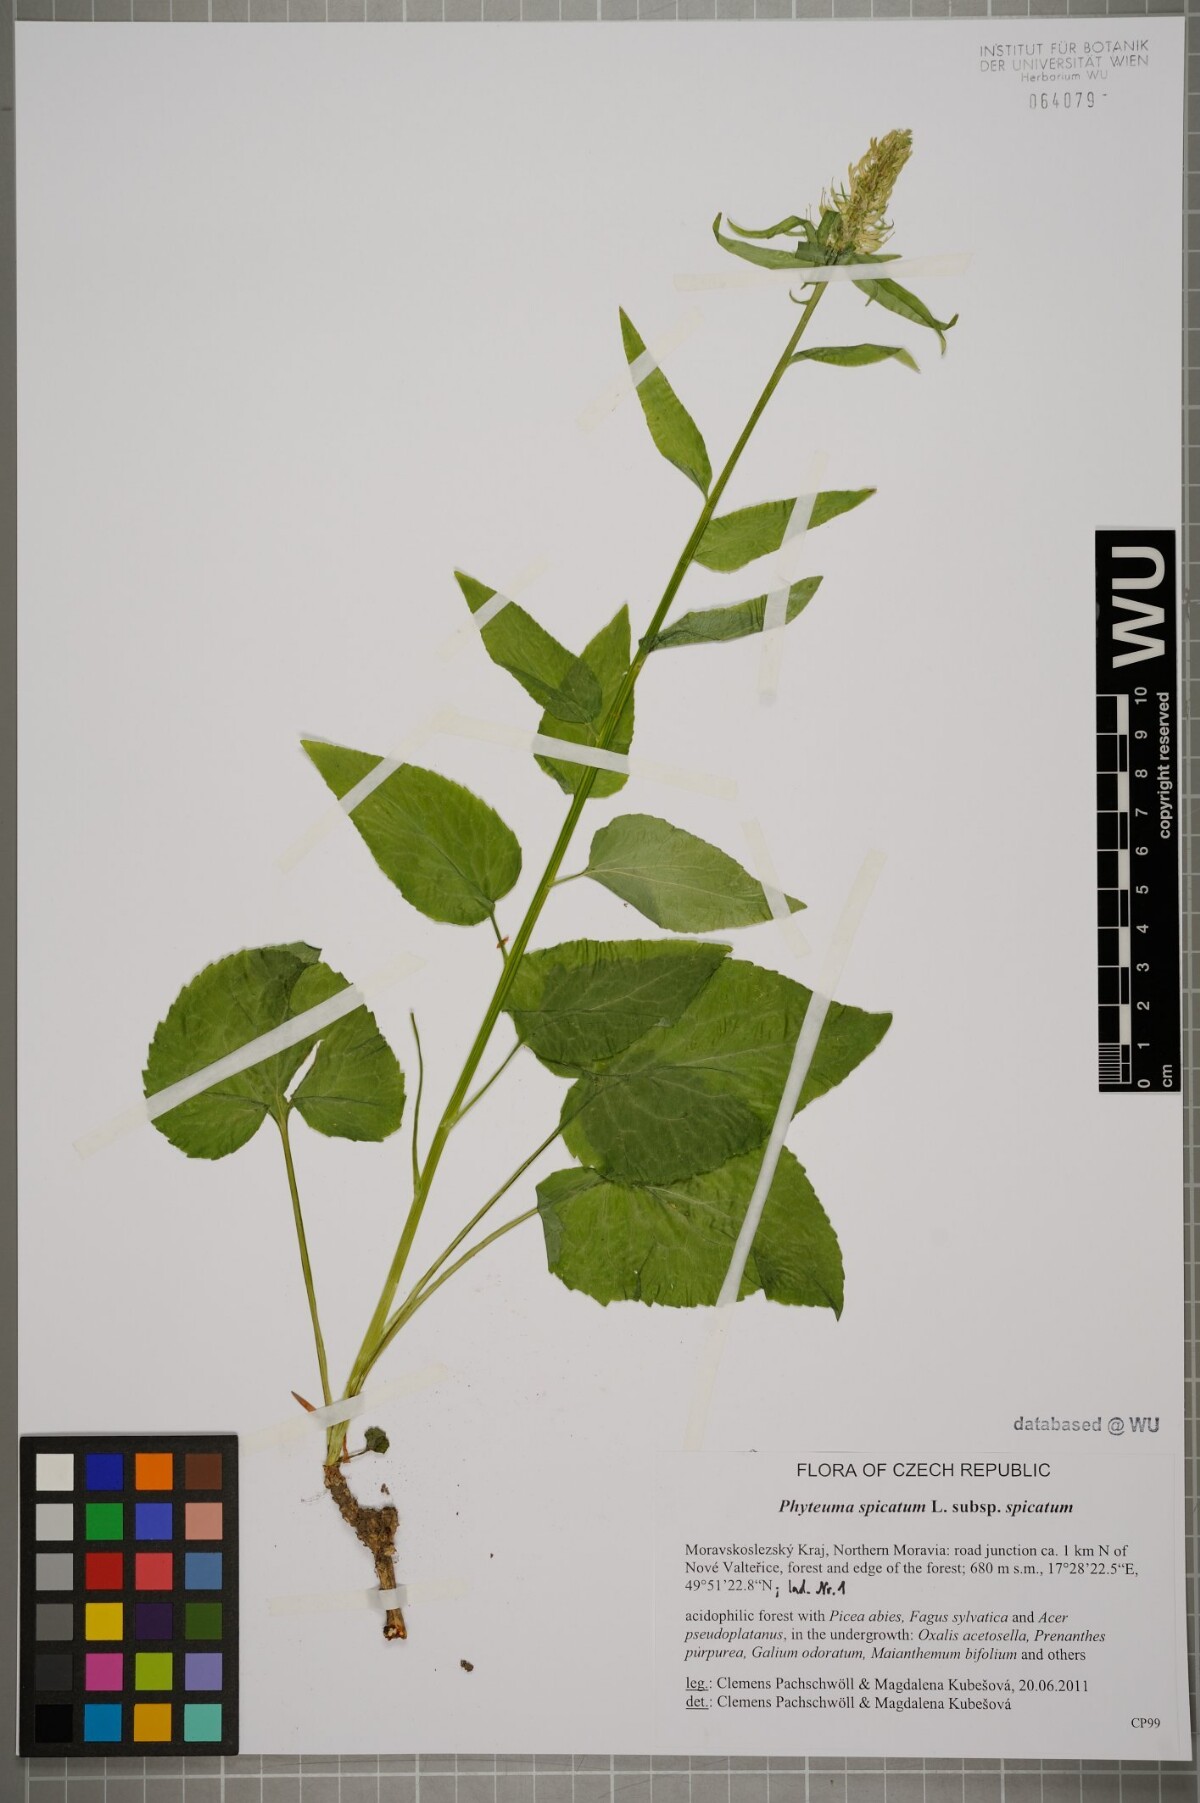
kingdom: Plantae
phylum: Tracheophyta
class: Magnoliopsida
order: Asterales
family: Campanulaceae
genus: Phyteuma
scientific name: Phyteuma spicatum
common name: Spiked rampion
